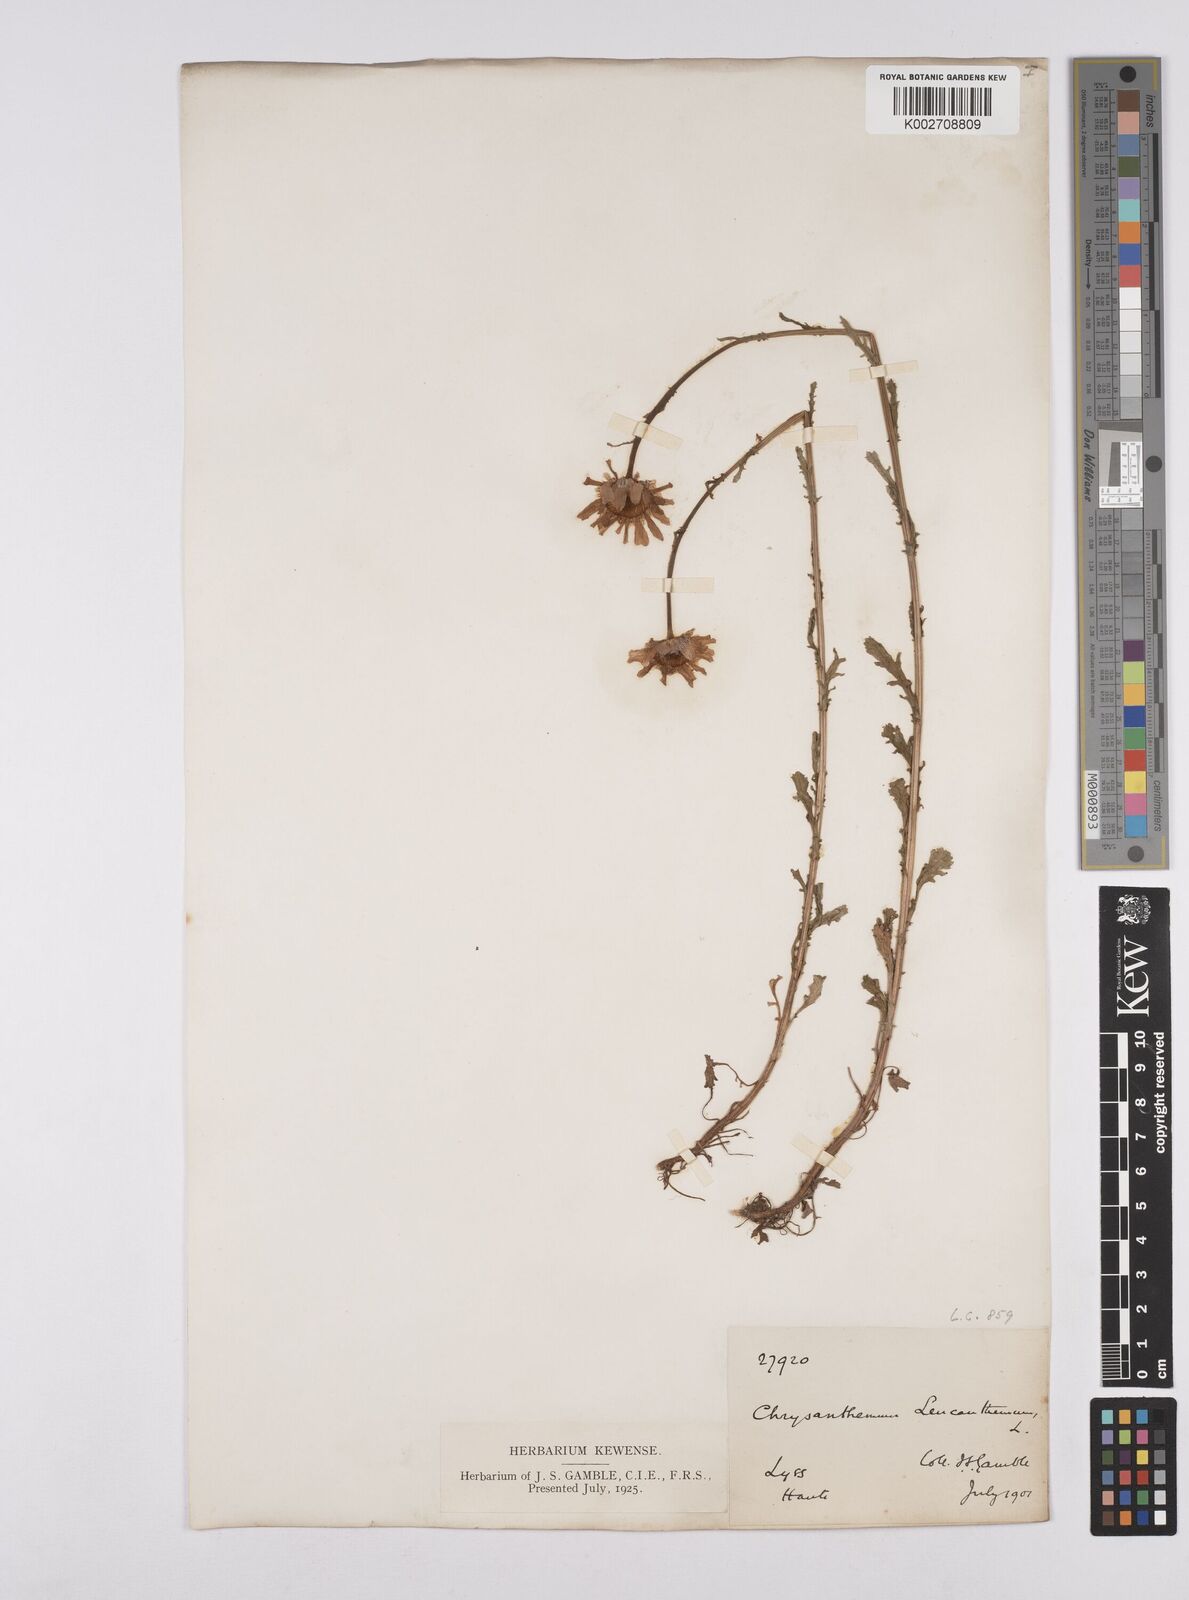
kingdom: Plantae
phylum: Tracheophyta
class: Magnoliopsida
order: Asterales
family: Asteraceae
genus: Leucanthemum
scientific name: Leucanthemum vulgare
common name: Oxeye daisy
